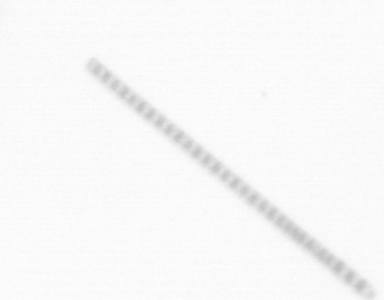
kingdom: Chromista
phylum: Ochrophyta
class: Bacillariophyceae
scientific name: Bacillariophyceae
